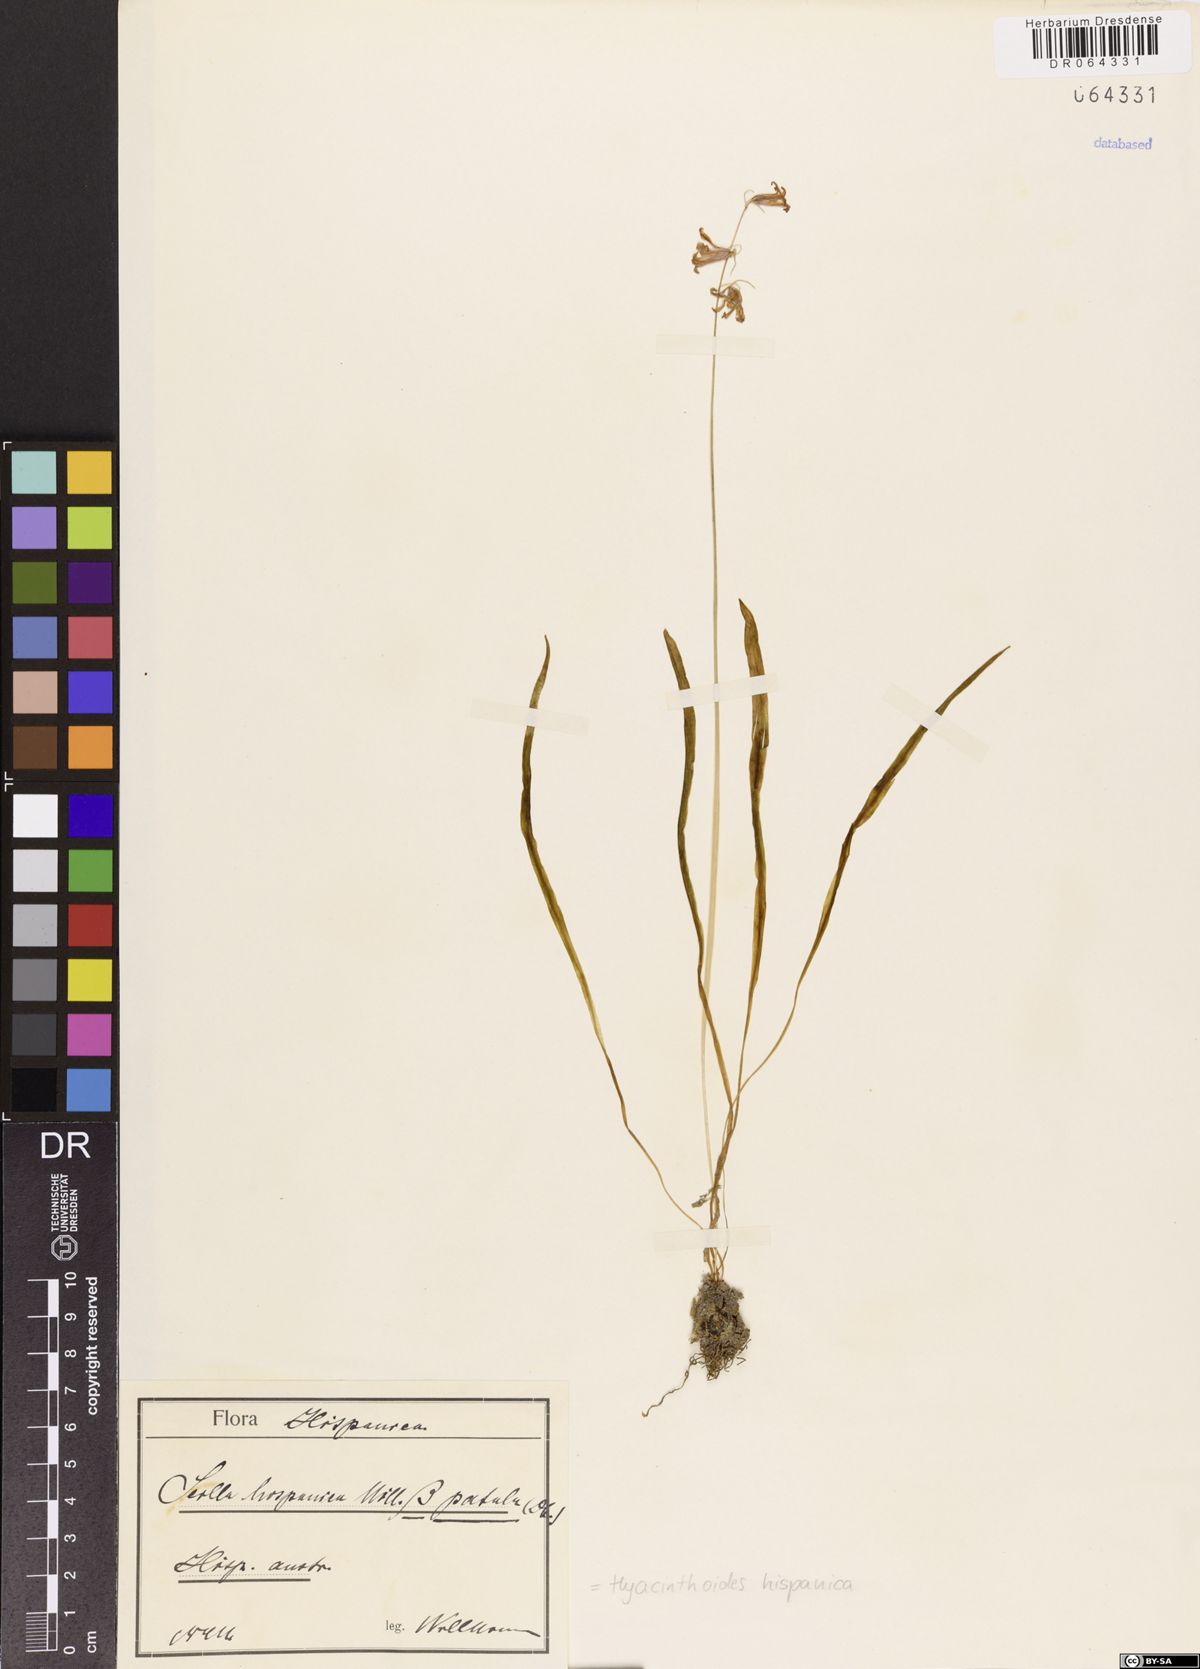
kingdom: Plantae
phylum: Tracheophyta
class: Liliopsida
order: Asparagales
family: Asparagaceae
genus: Hyacinthoides
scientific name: Hyacinthoides hispanica
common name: Spanish bluebell
